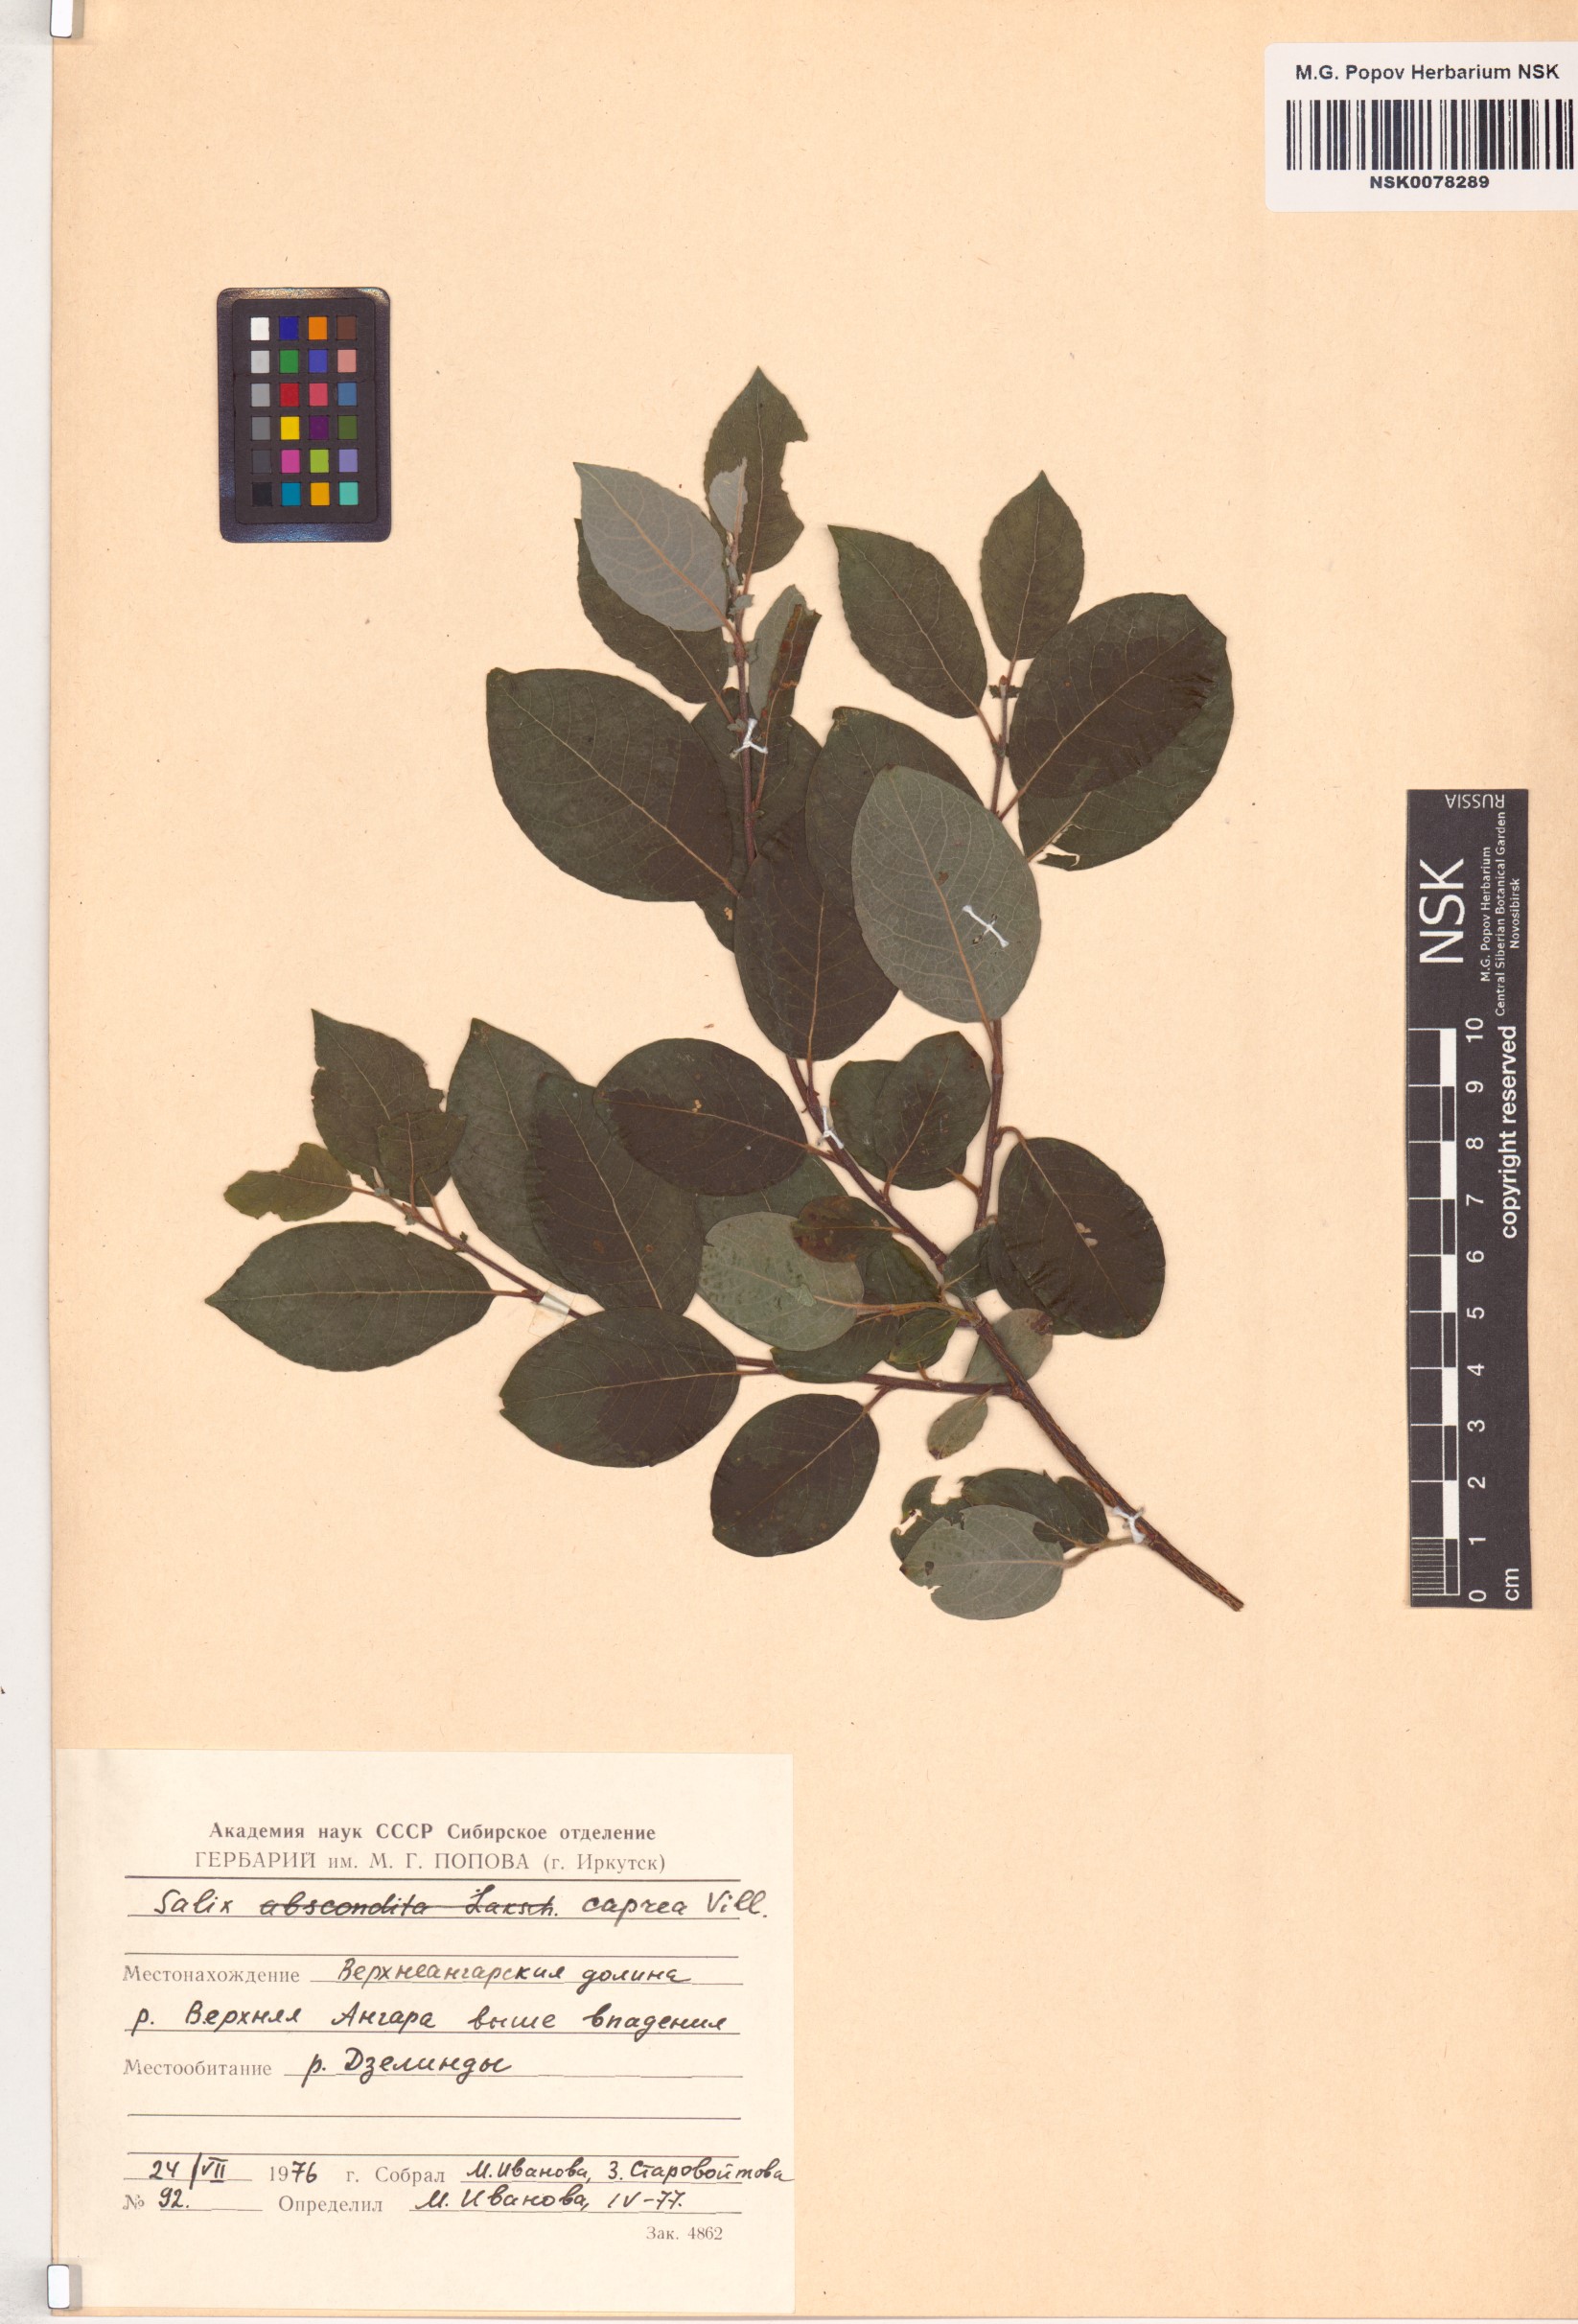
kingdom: Plantae
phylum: Tracheophyta
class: Magnoliopsida
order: Malpighiales
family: Salicaceae
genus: Salix
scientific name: Salix caprea
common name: Goat willow
